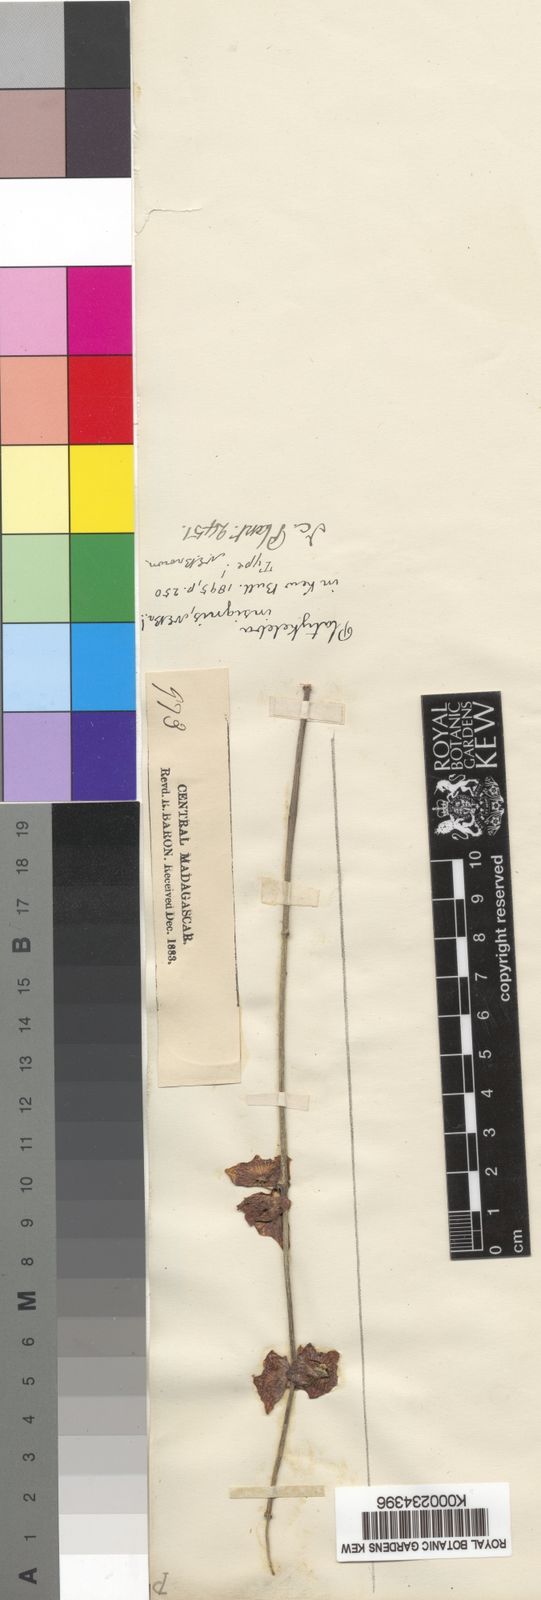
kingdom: Plantae
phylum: Tracheophyta
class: Magnoliopsida
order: Gentianales
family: Apocynaceae
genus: Cynanchum
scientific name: Cynanchum insigne
